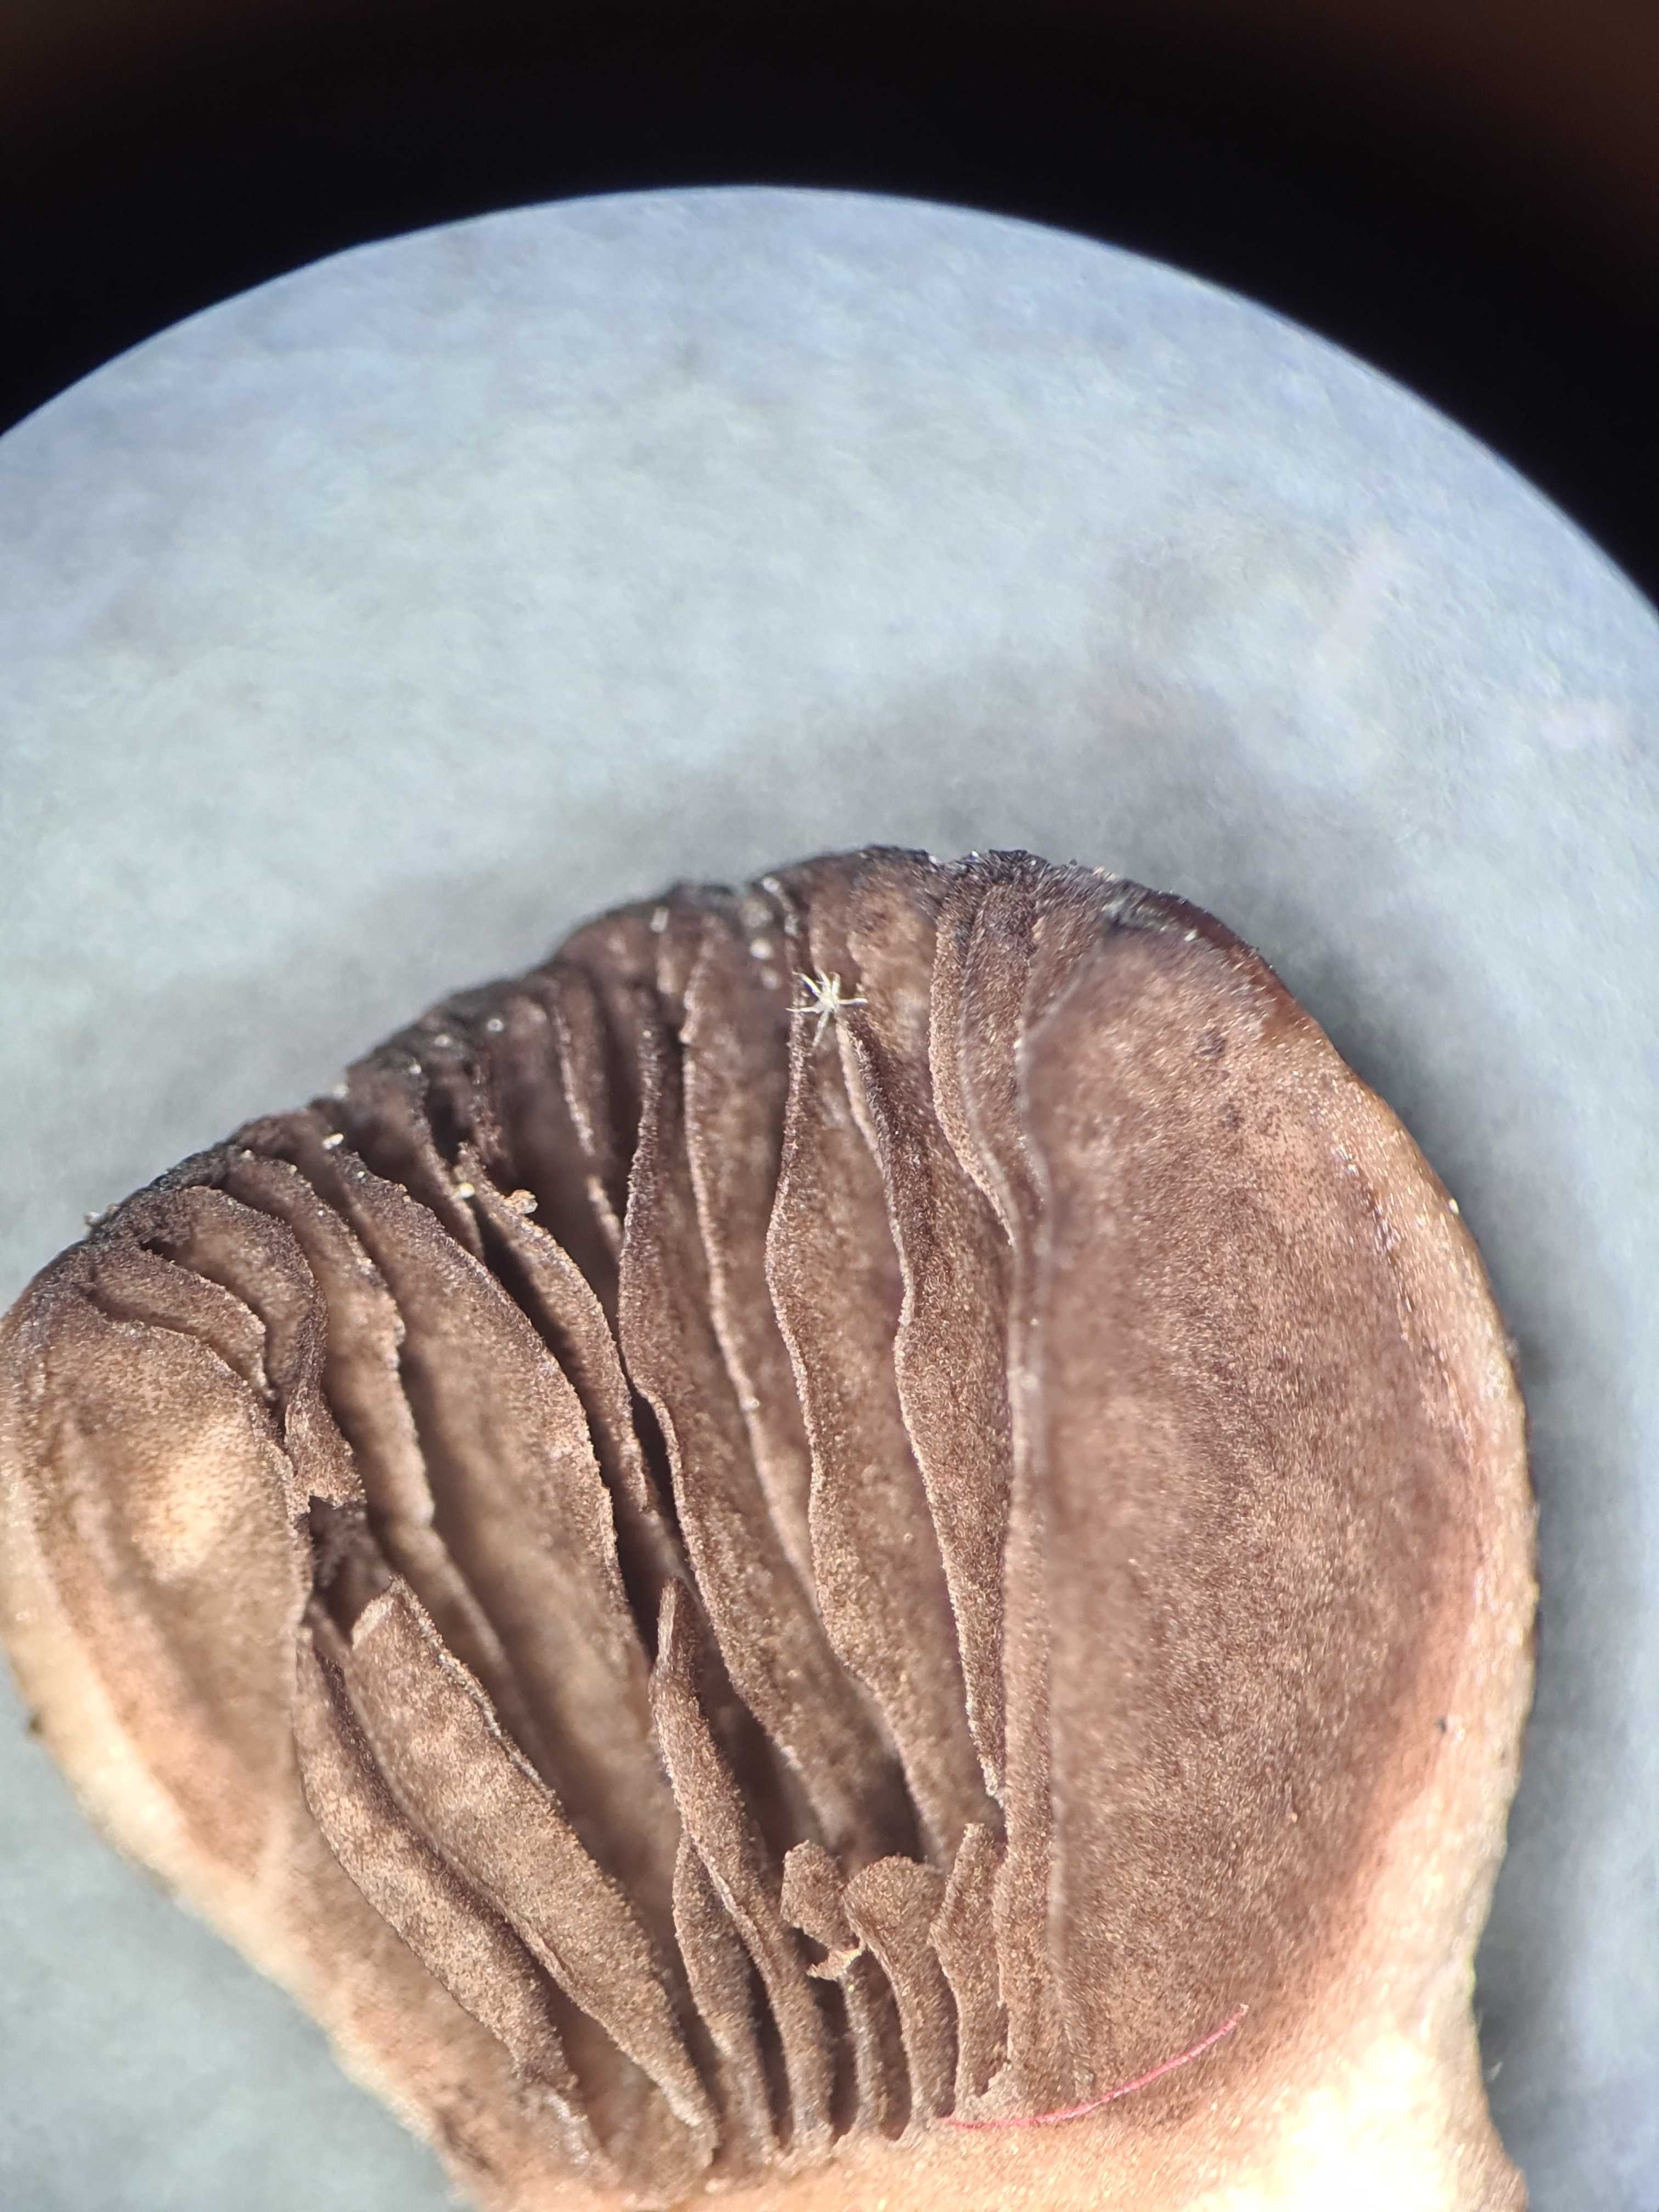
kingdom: Fungi
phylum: Basidiomycota
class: Agaricomycetes
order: Agaricales
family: Bolbitiaceae
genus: Panaeolina
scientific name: Panaeolina foenisecii
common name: høslætsvamp
